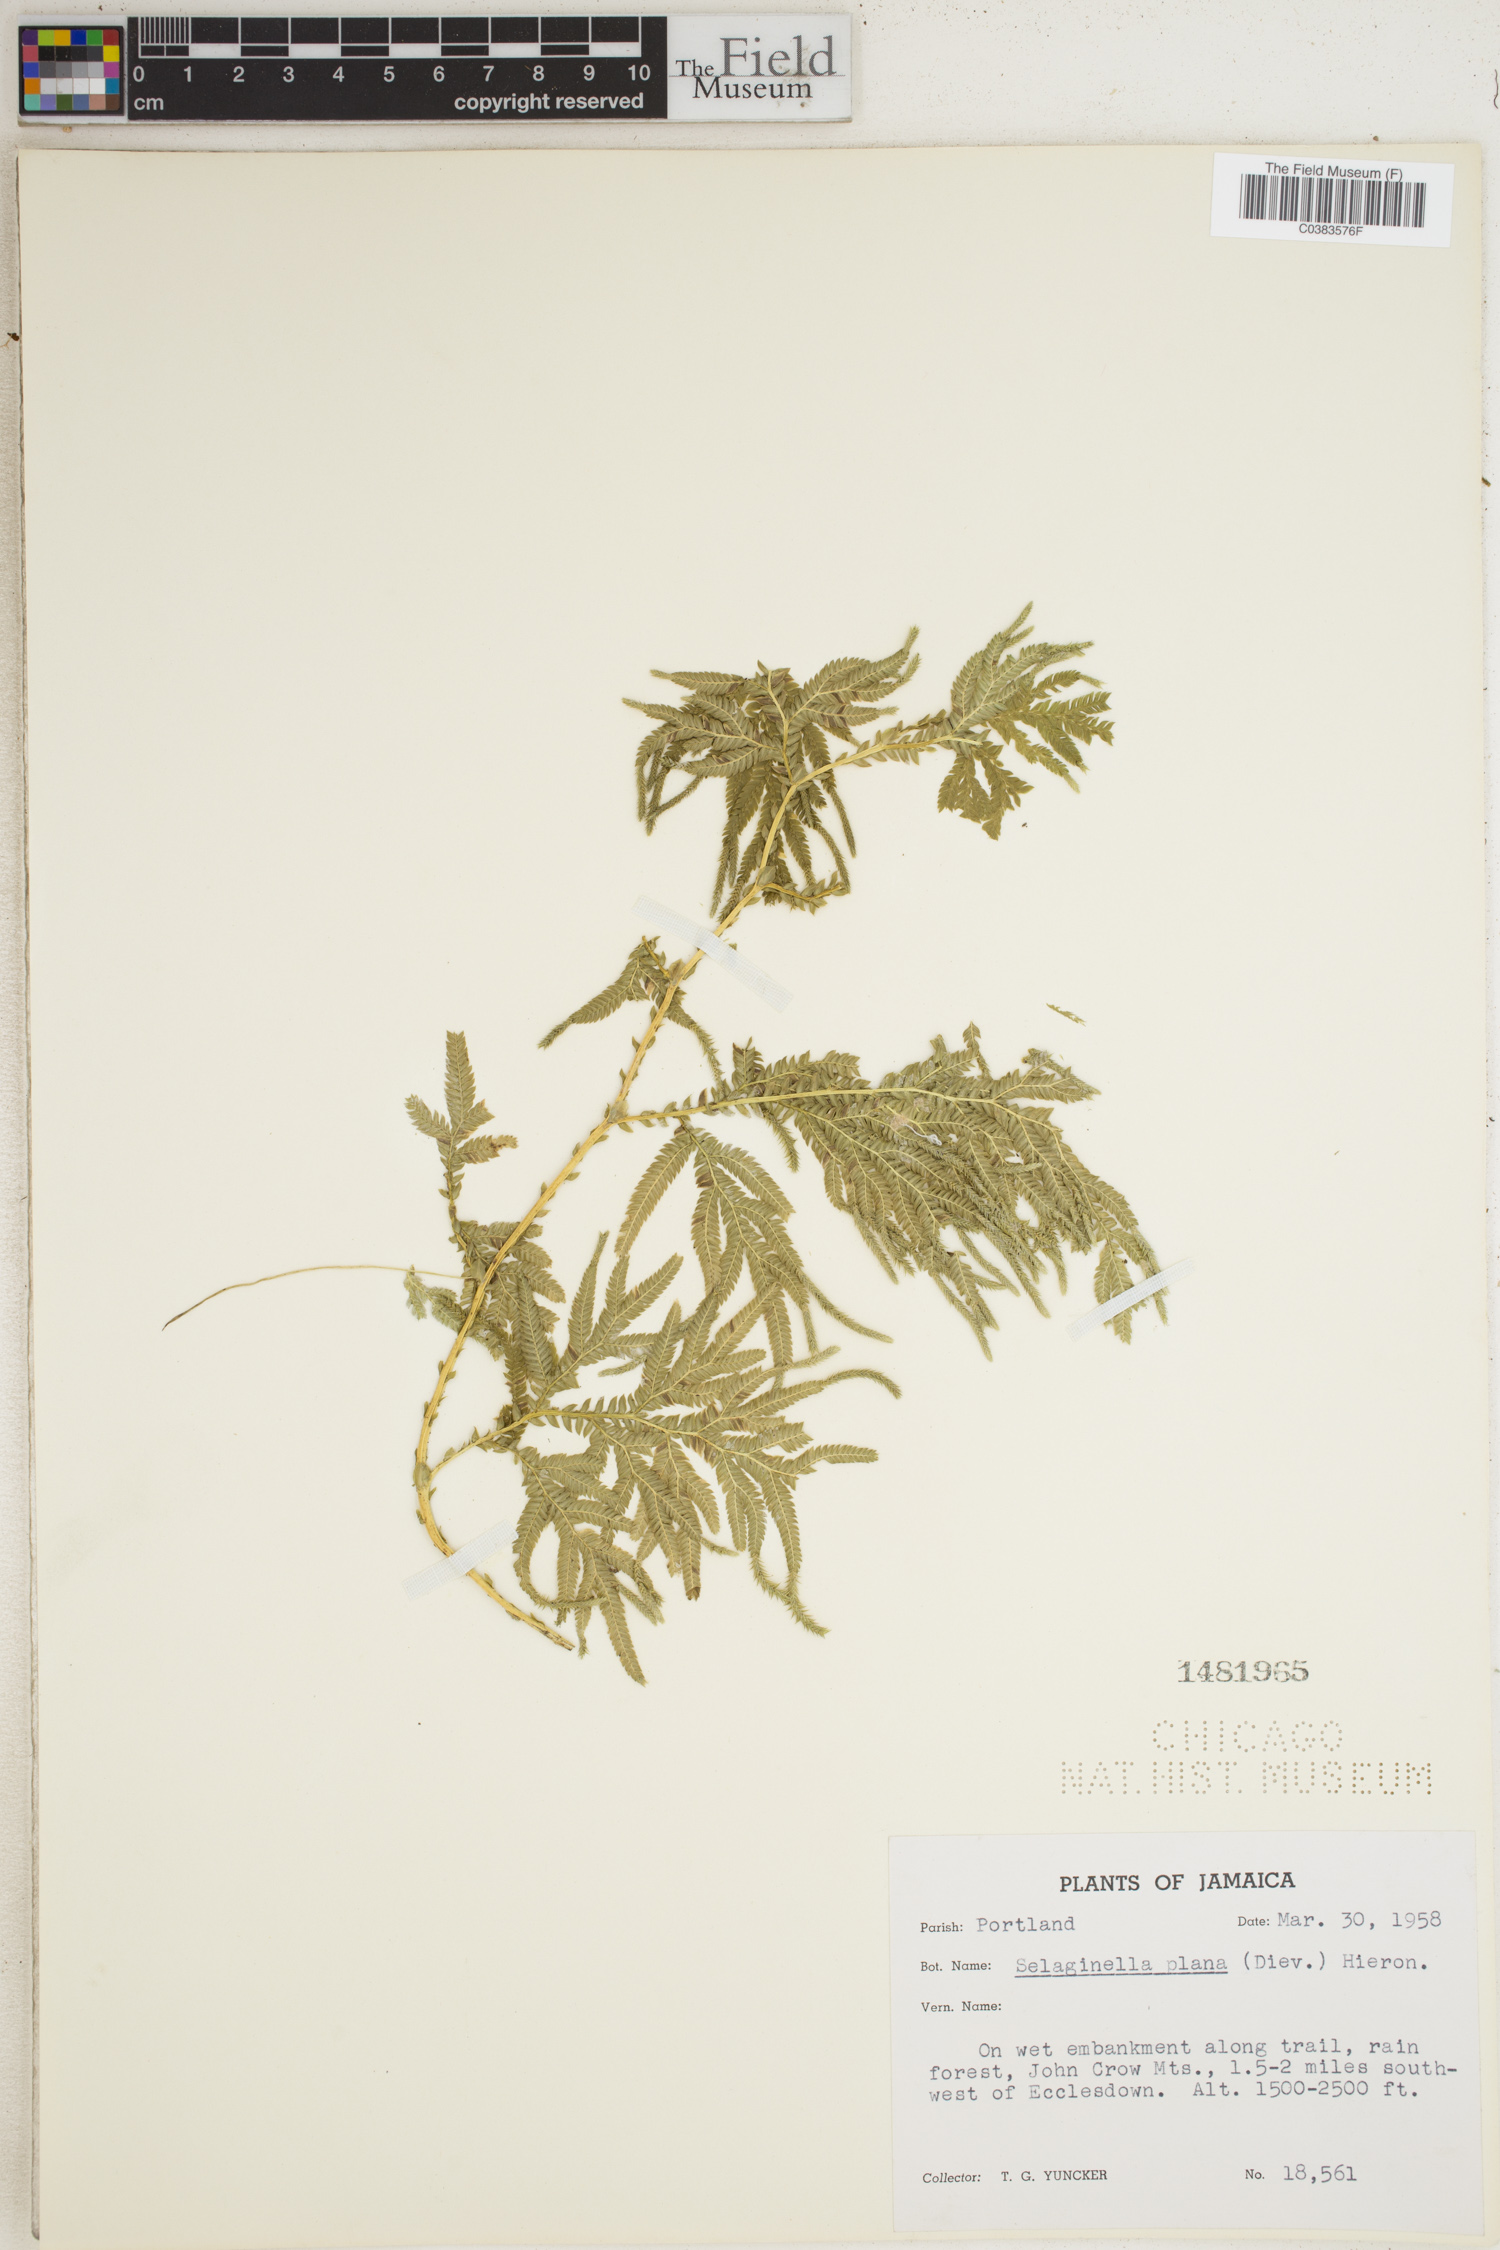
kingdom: Plantae
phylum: Tracheophyta
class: Lycopodiopsida
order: Selaginellales
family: Selaginellaceae
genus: Selaginella
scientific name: Selaginella plana
